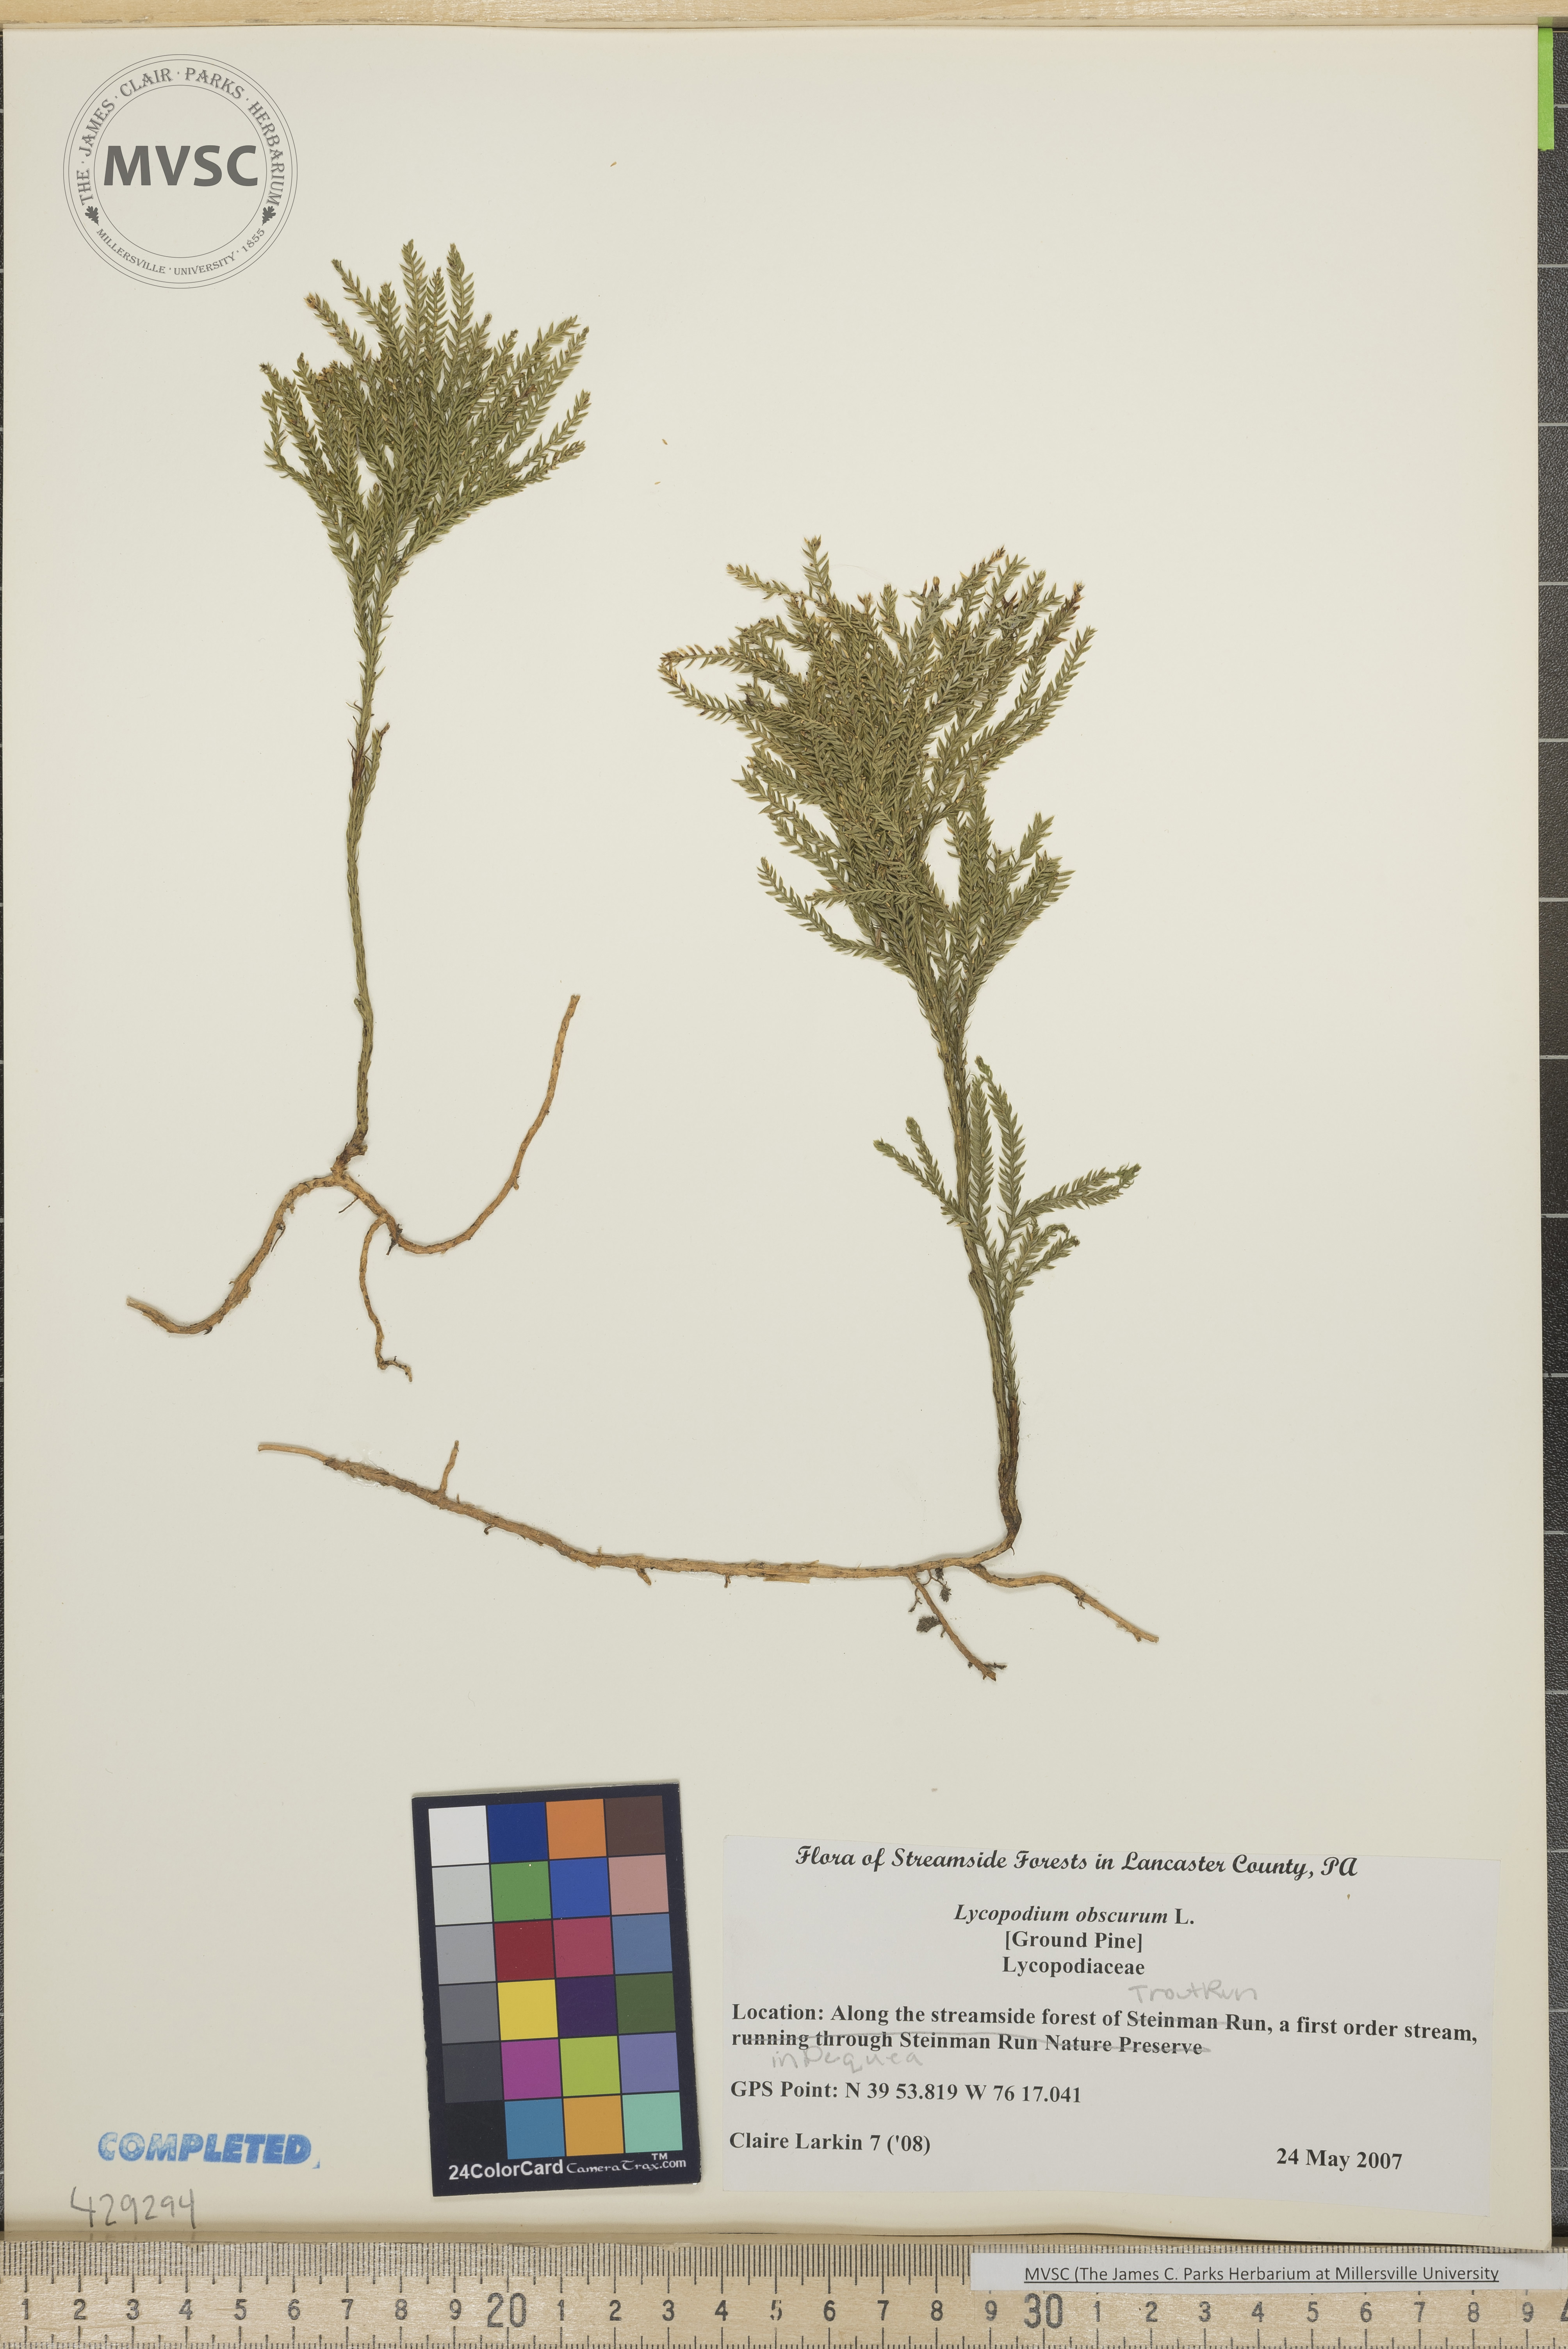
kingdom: Plantae
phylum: Tracheophyta
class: Lycopodiopsida
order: Lycopodiales
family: Lycopodiaceae
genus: Dendrolycopodium
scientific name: Dendrolycopodium obscurum
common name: Common ground-pine
